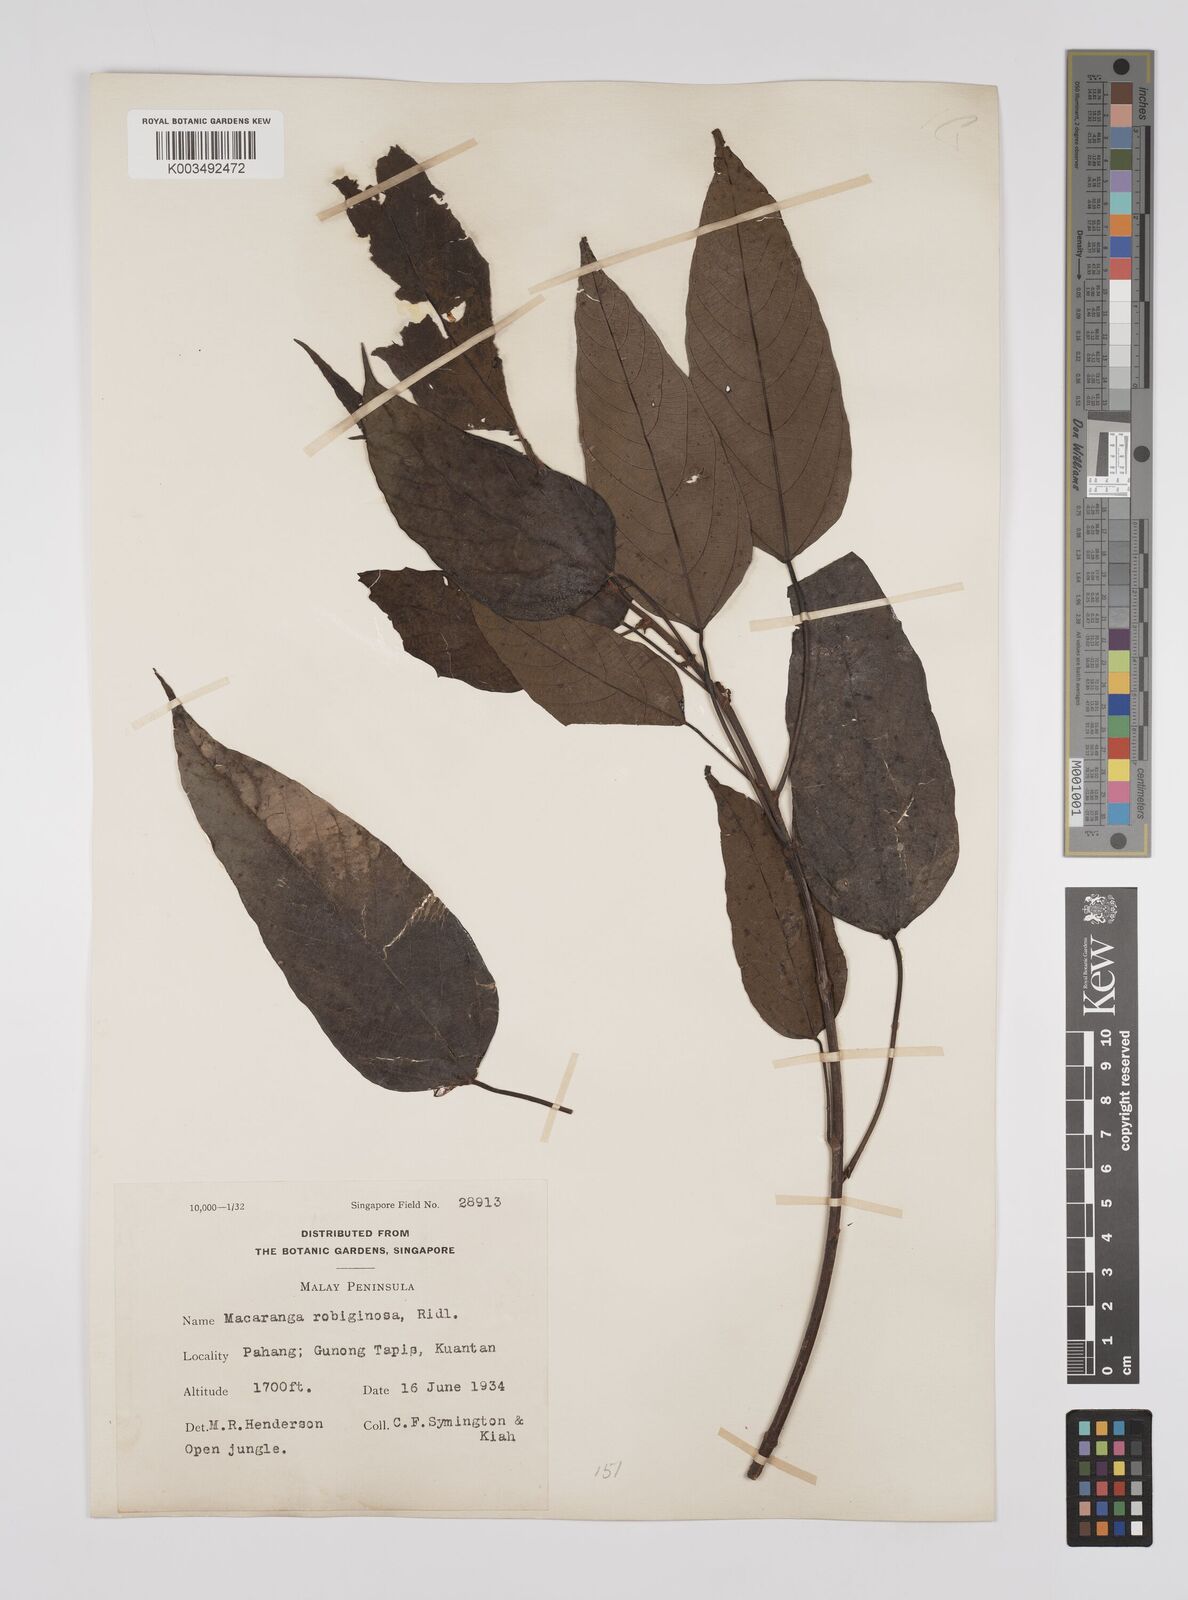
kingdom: Plantae
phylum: Tracheophyta
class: Magnoliopsida
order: Malpighiales
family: Euphorbiaceae
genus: Macaranga
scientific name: Macaranga heynei
